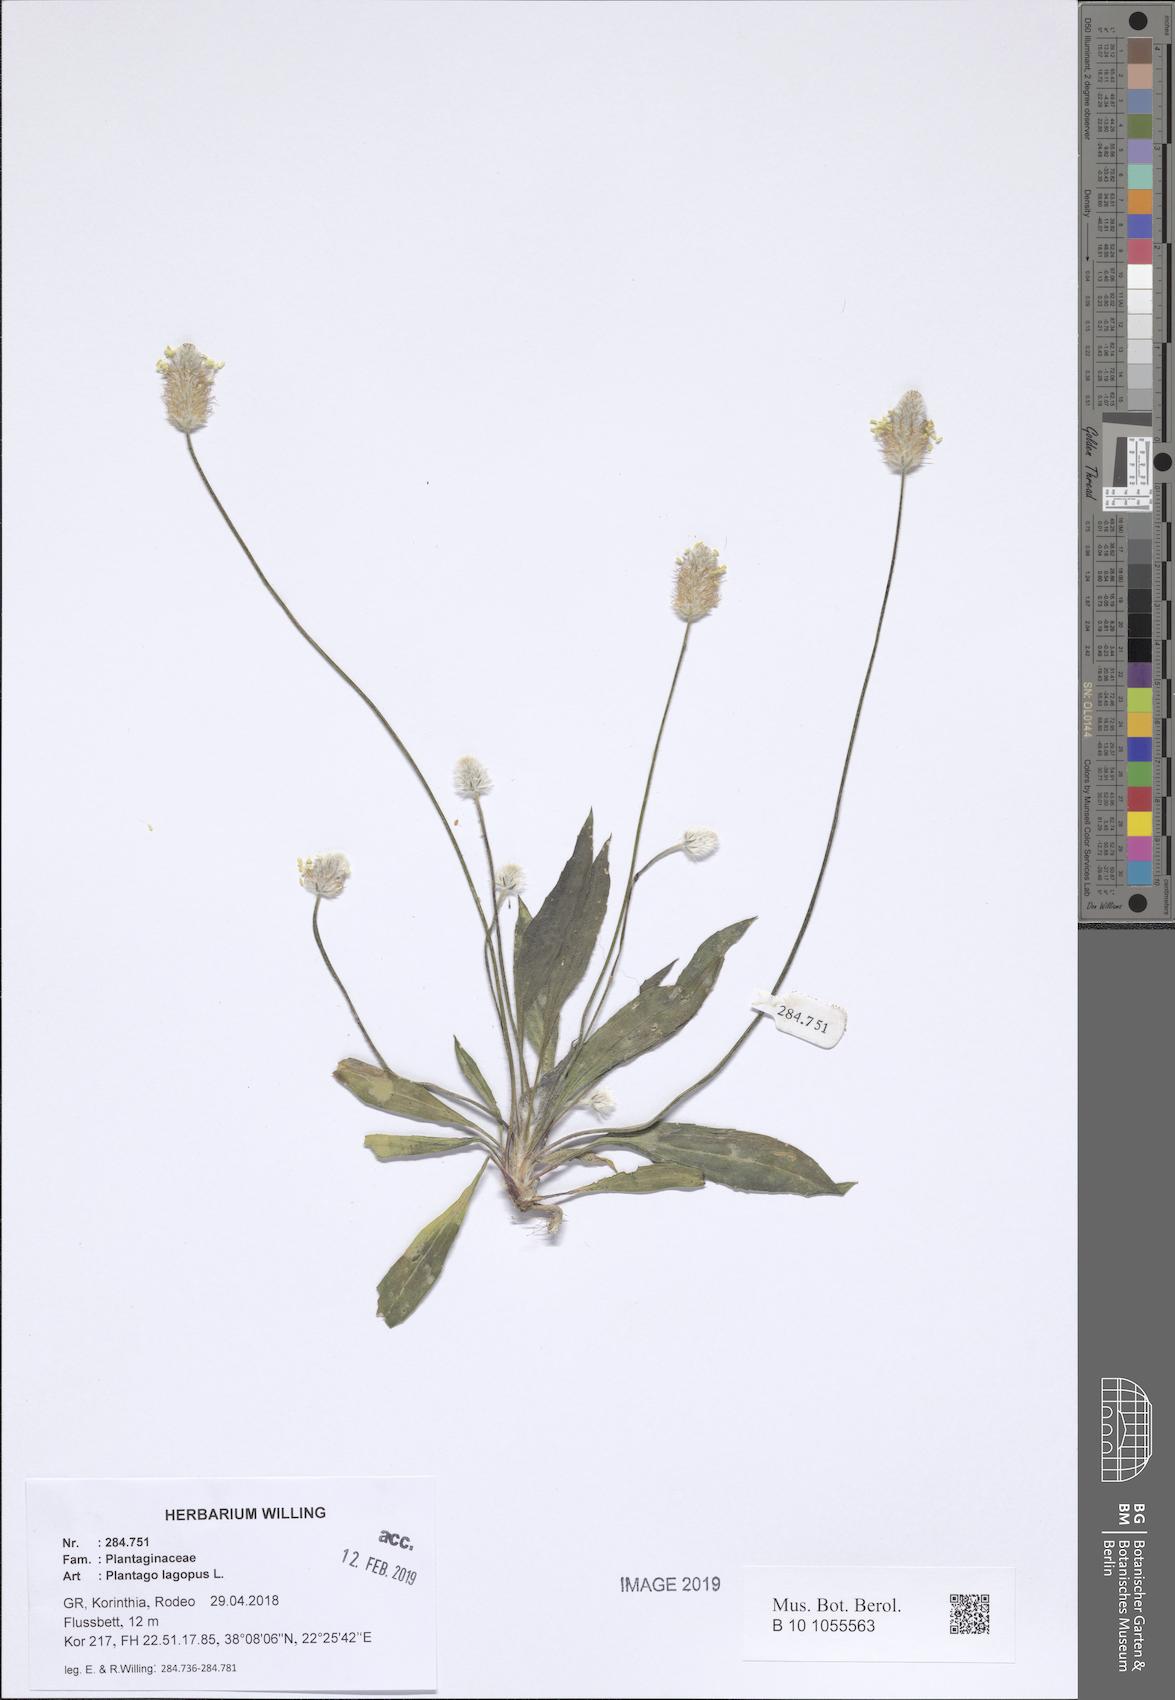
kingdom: Plantae
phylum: Tracheophyta
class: Magnoliopsida
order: Lamiales
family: Plantaginaceae
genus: Plantago
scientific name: Plantago lagopus
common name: Hare-foot plantain
